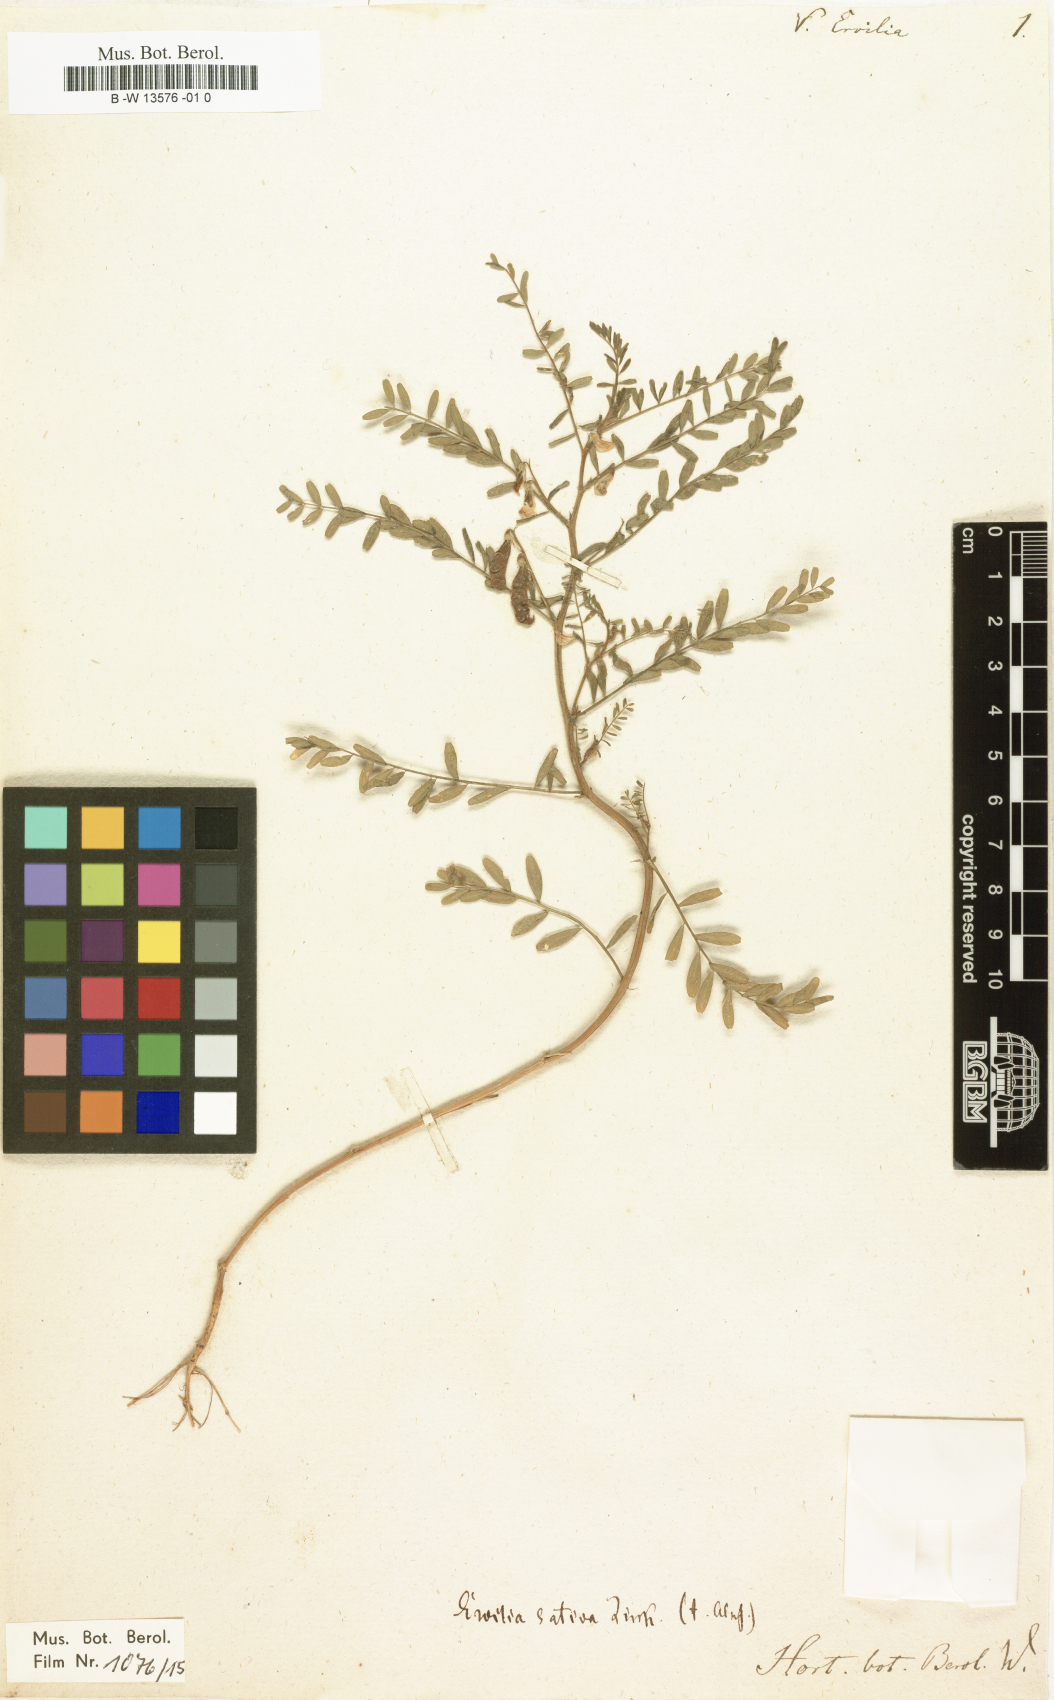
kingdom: Plantae
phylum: Tracheophyta
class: Magnoliopsida
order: Fabales
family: Fabaceae
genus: Vicia
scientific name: Vicia ervilia
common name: Bitter vetch
